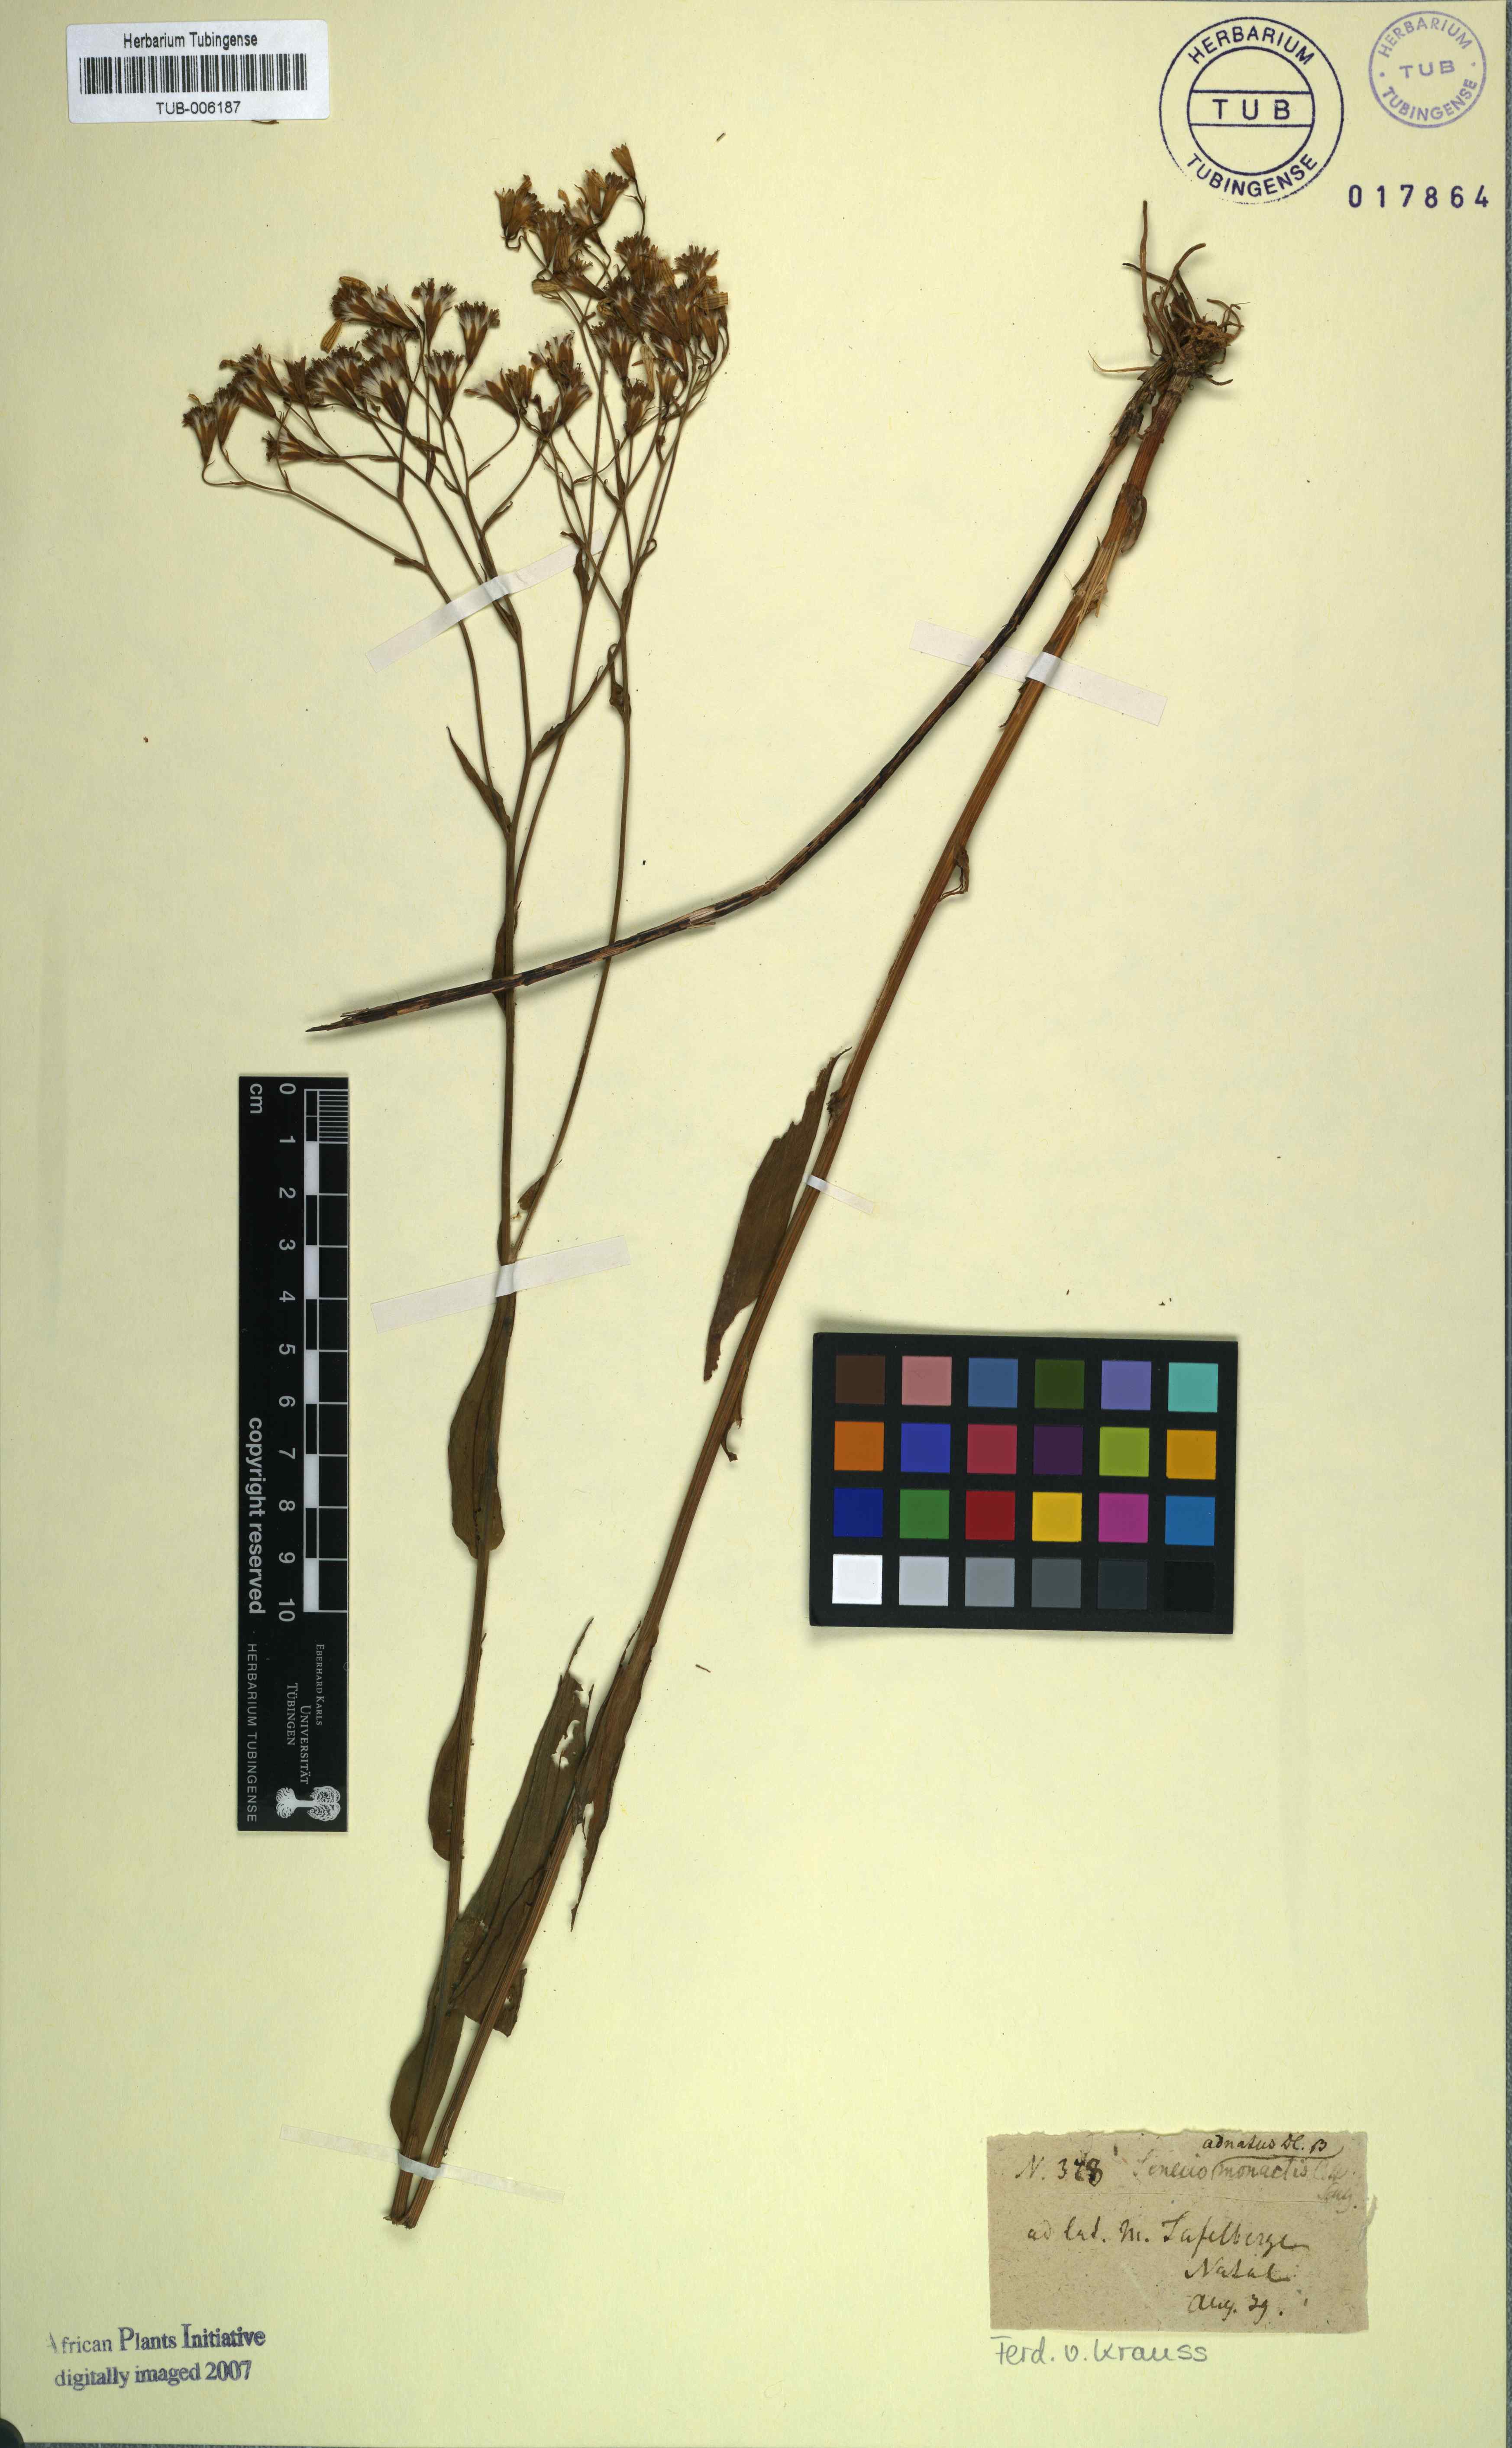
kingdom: Plantae
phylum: Tracheophyta
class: Magnoliopsida
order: Asterales
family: Asteraceae
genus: Senecio
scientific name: Senecio adnatus
